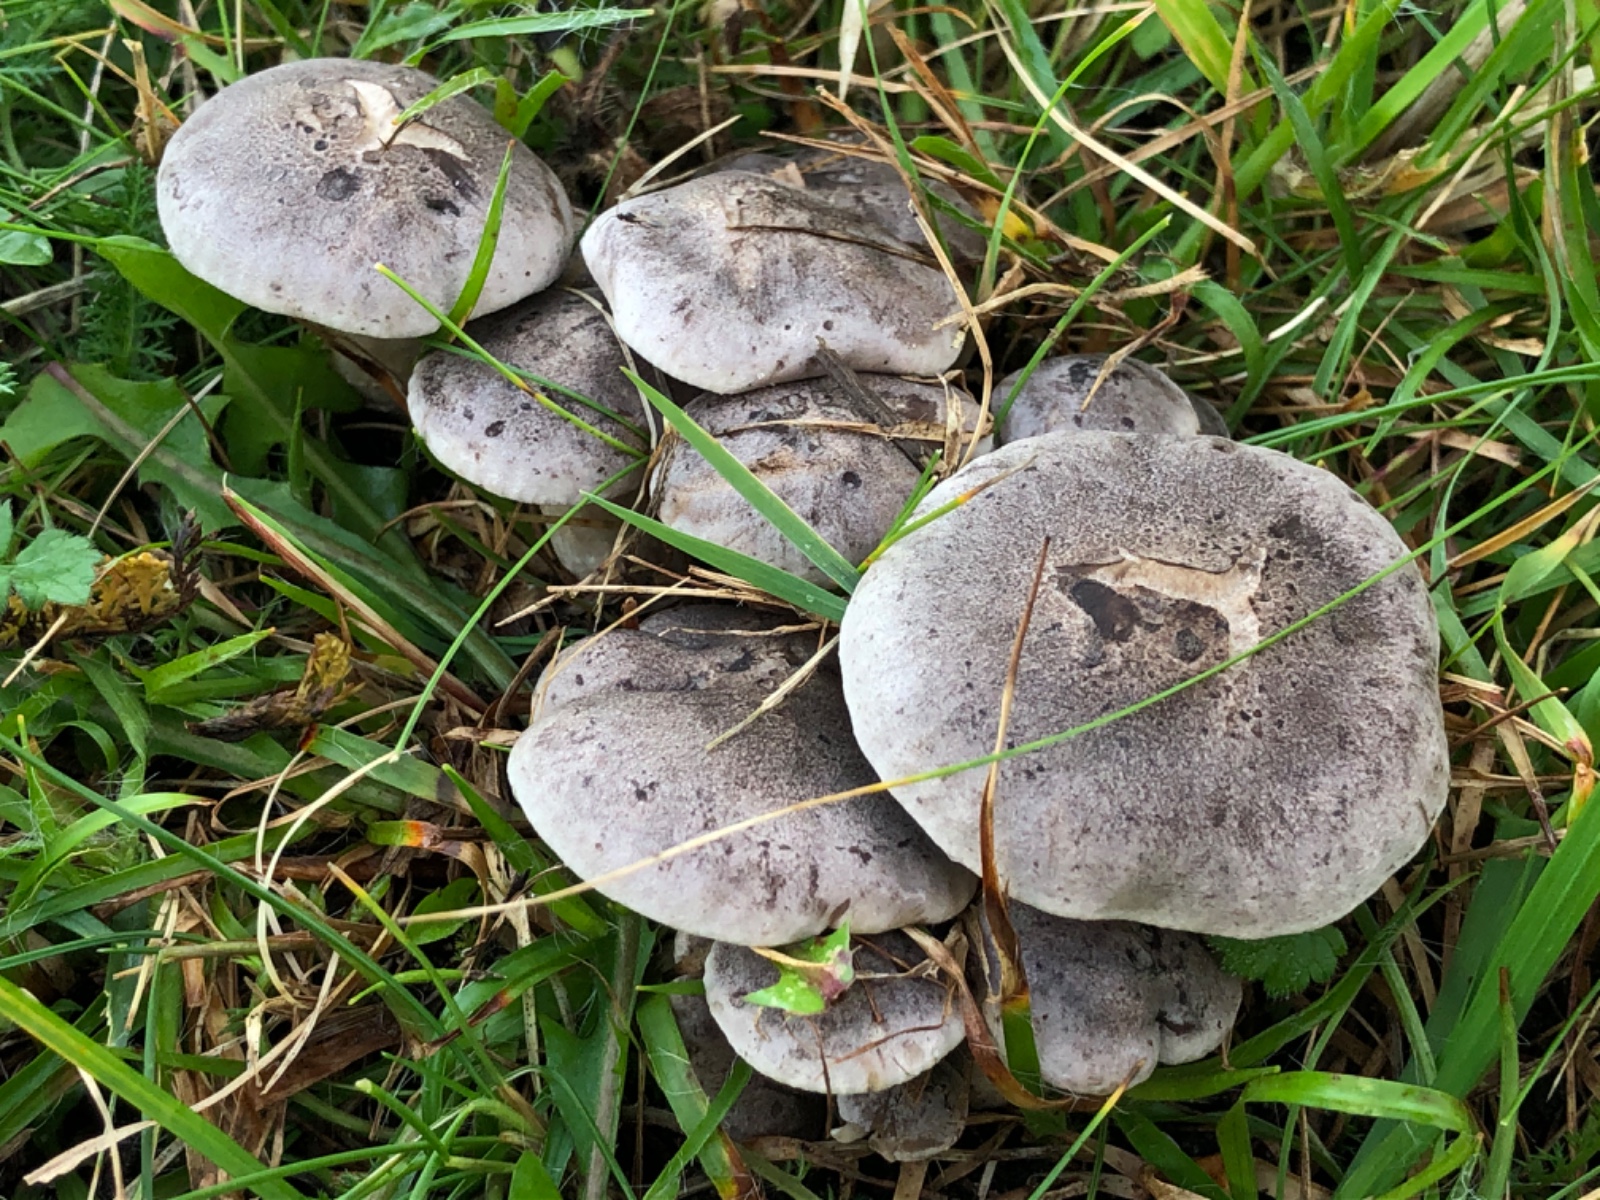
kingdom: Fungi
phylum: Basidiomycota
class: Agaricomycetes
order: Agaricales
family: Tricholomataceae
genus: Lepista
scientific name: Lepista panaeolus
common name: marmoreret hekseringshat
